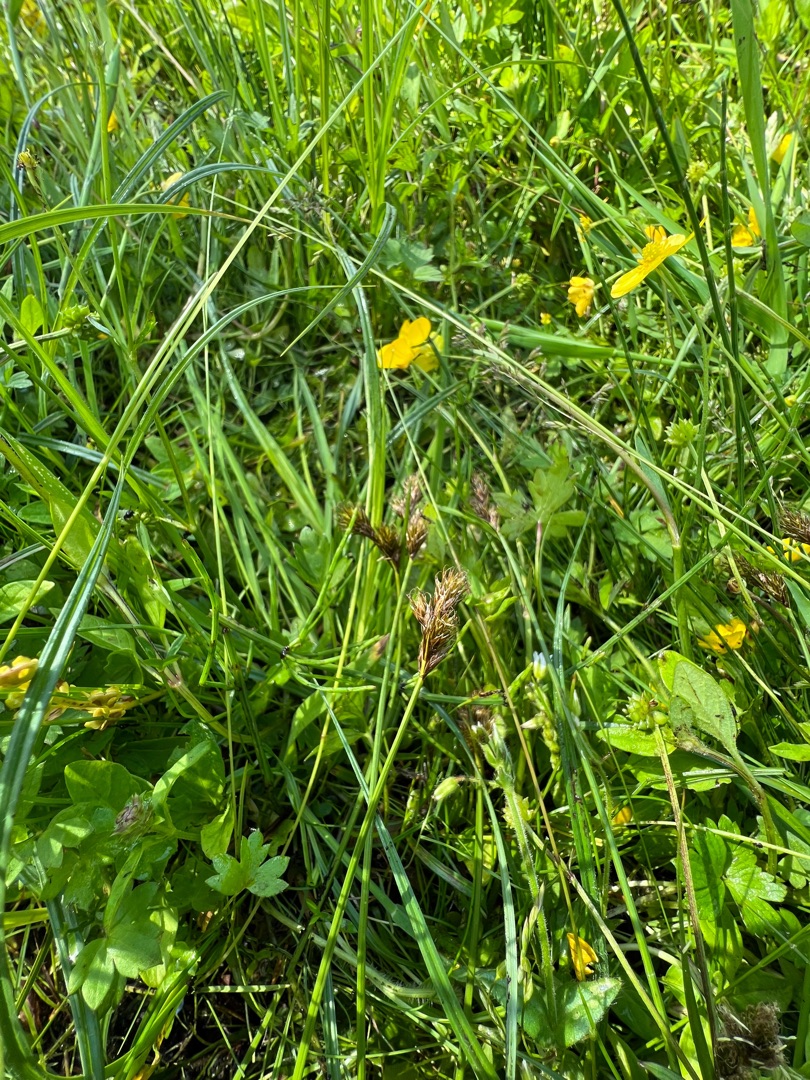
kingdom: Plantae
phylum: Tracheophyta
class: Liliopsida
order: Poales
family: Cyperaceae
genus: Carex
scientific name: Carex leporina
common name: Hare-star
